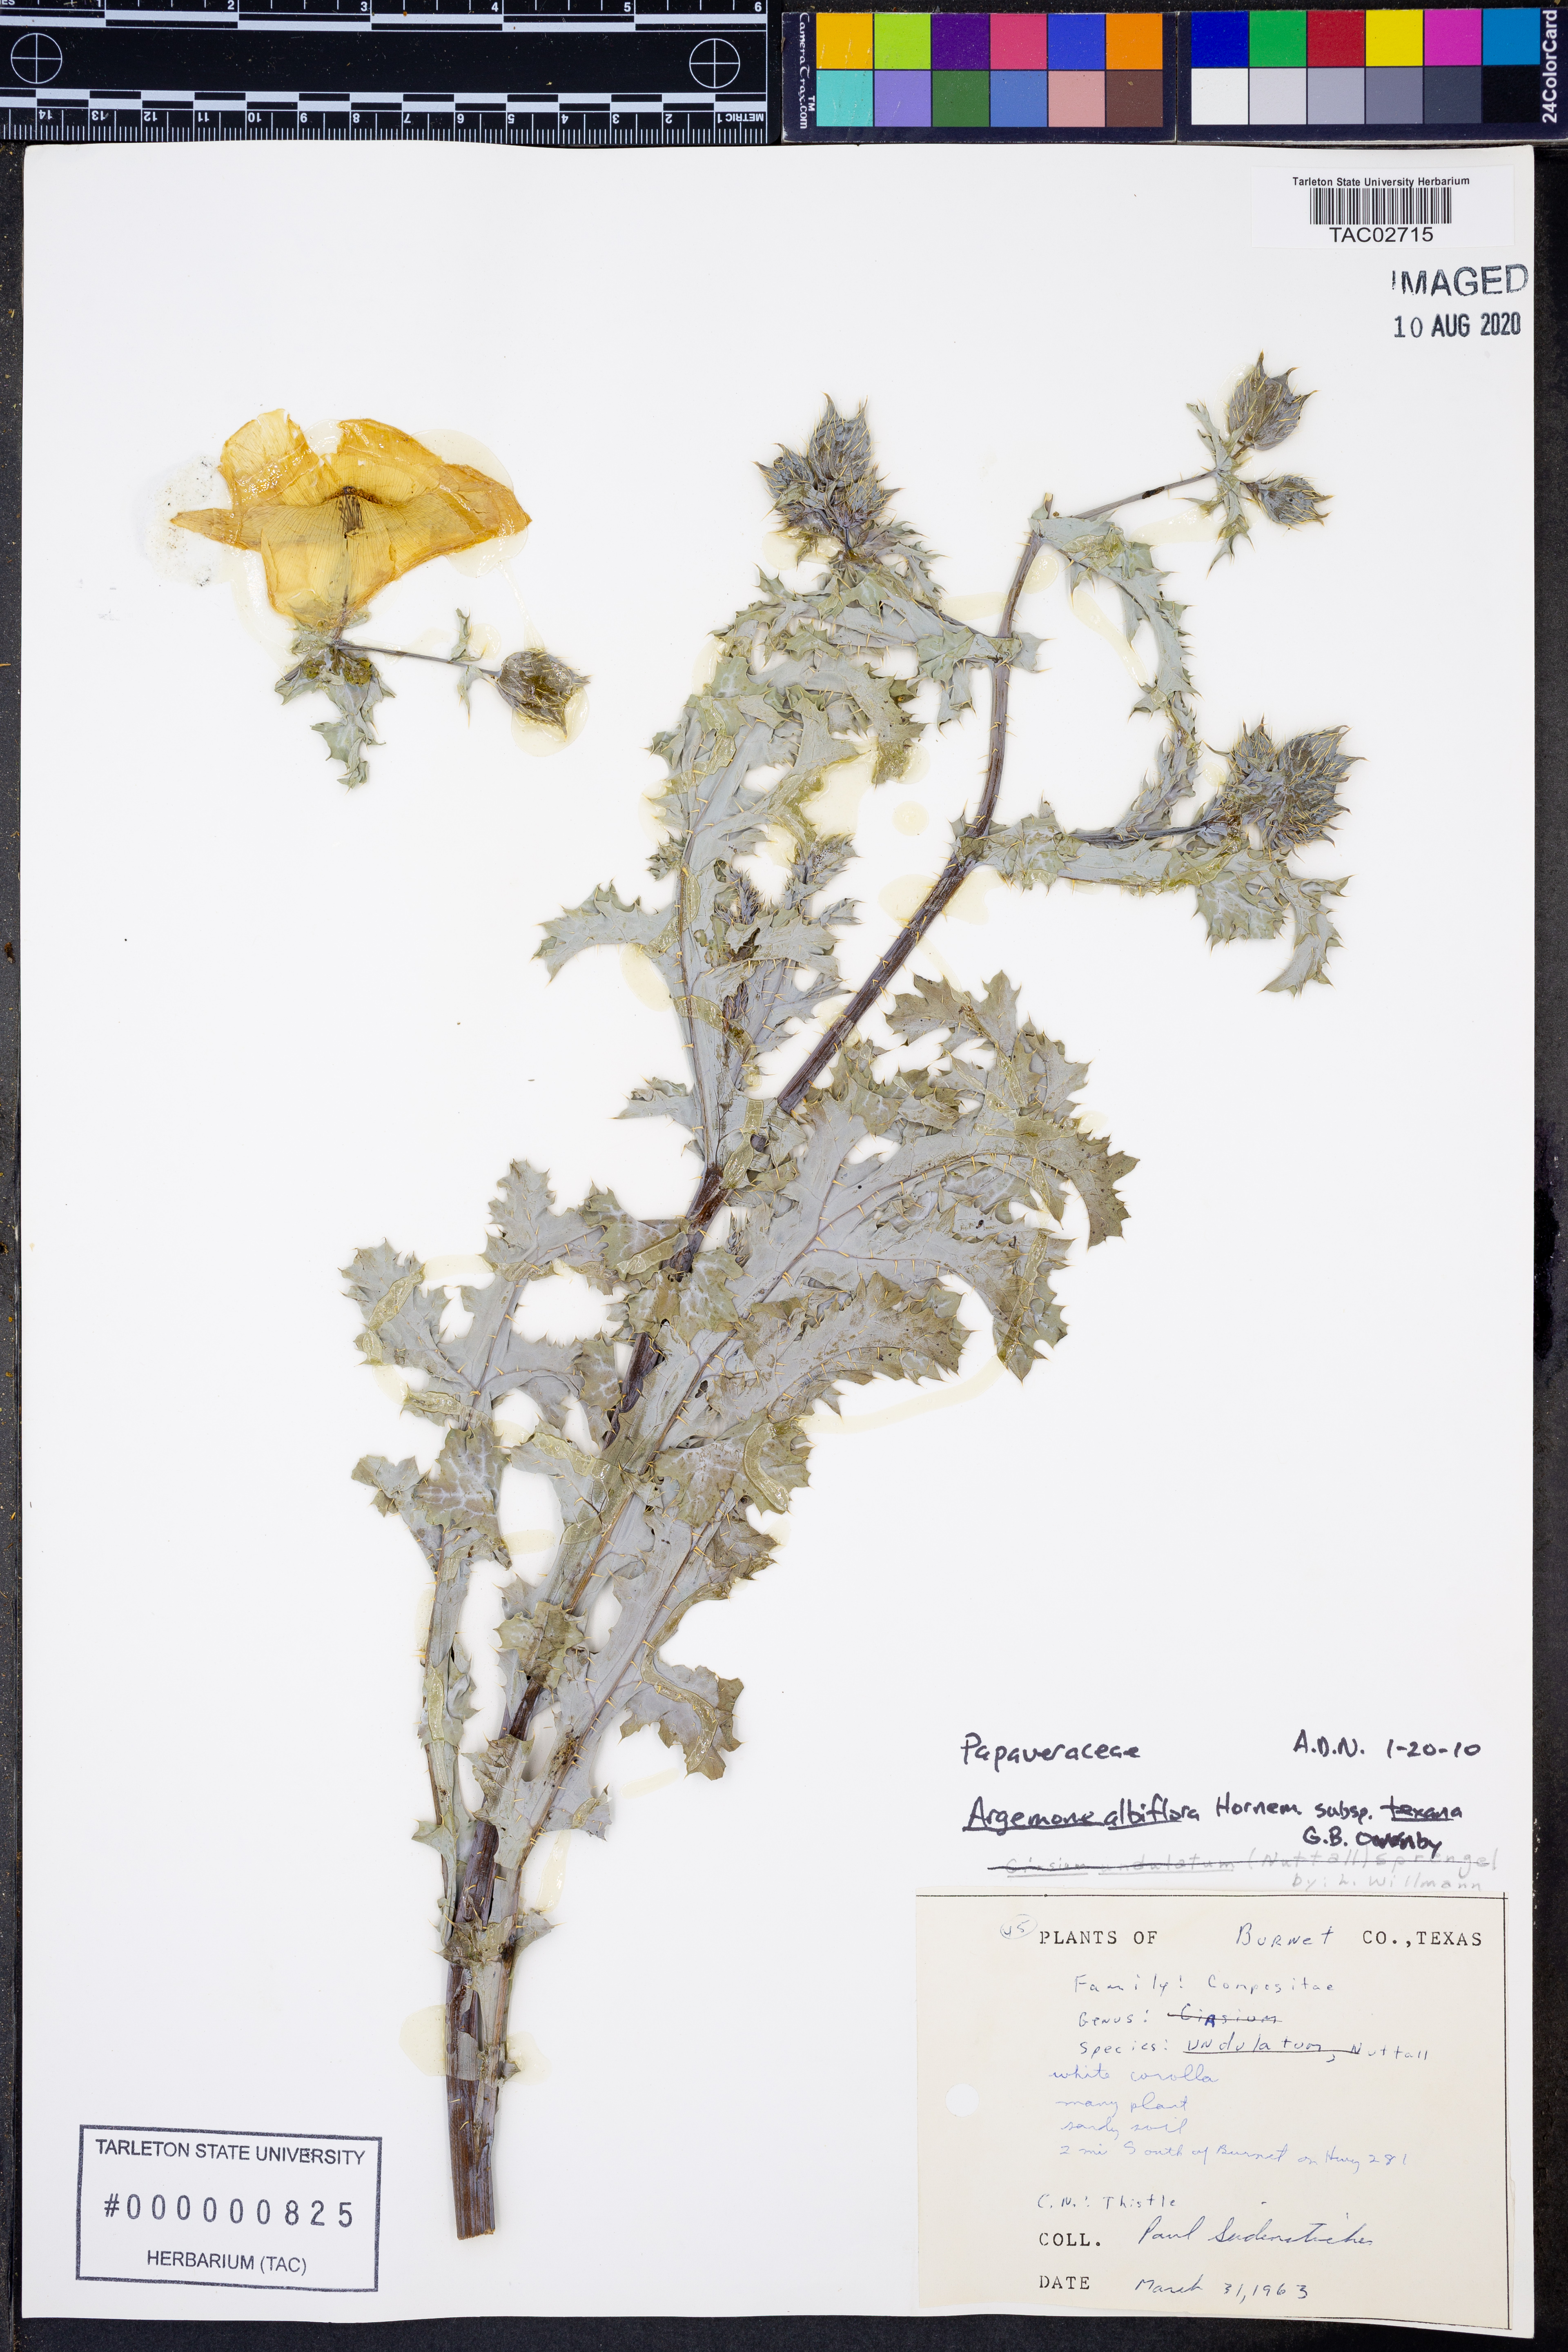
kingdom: Plantae
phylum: Tracheophyta
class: Magnoliopsida
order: Ranunculales
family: Papaveraceae
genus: Argemone
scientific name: Argemone albiflora
